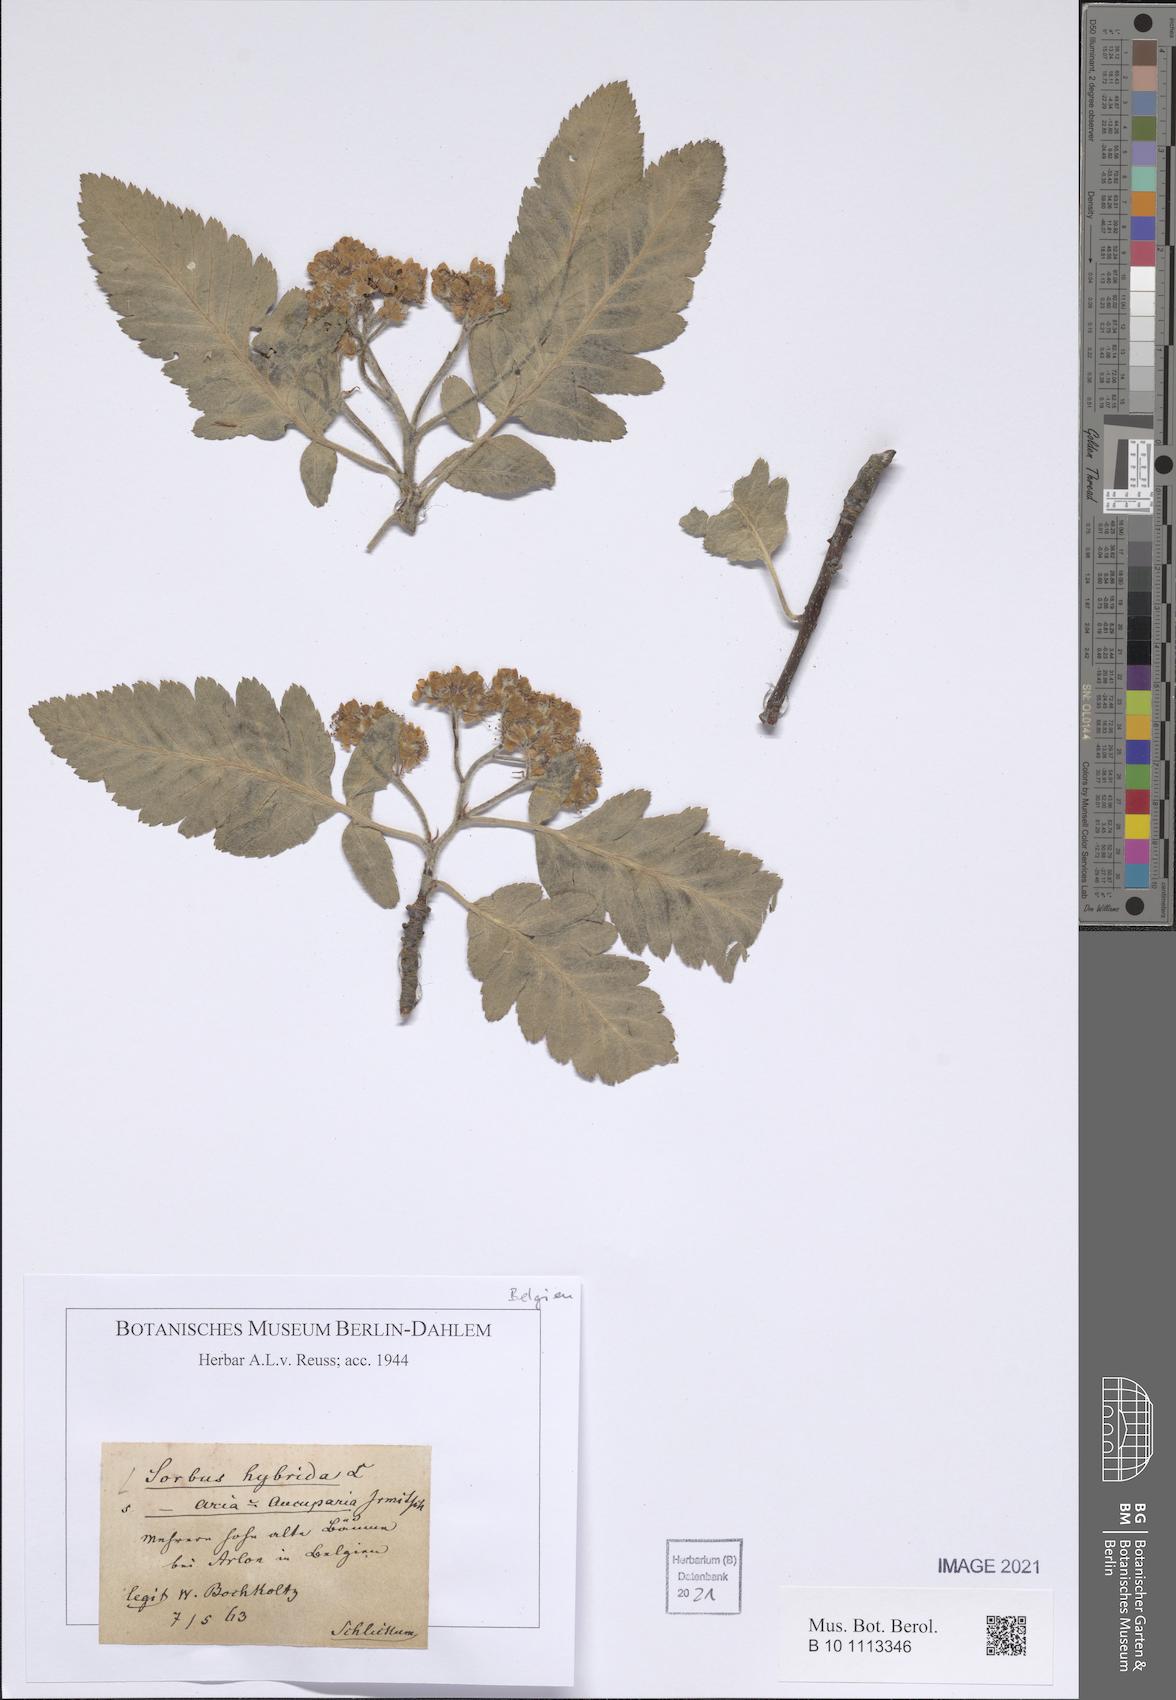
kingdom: Plantae
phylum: Tracheophyta
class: Magnoliopsida
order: Rosales
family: Rosaceae
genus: Hedlundia
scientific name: Hedlundia hybrida
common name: Swedish service-tree
